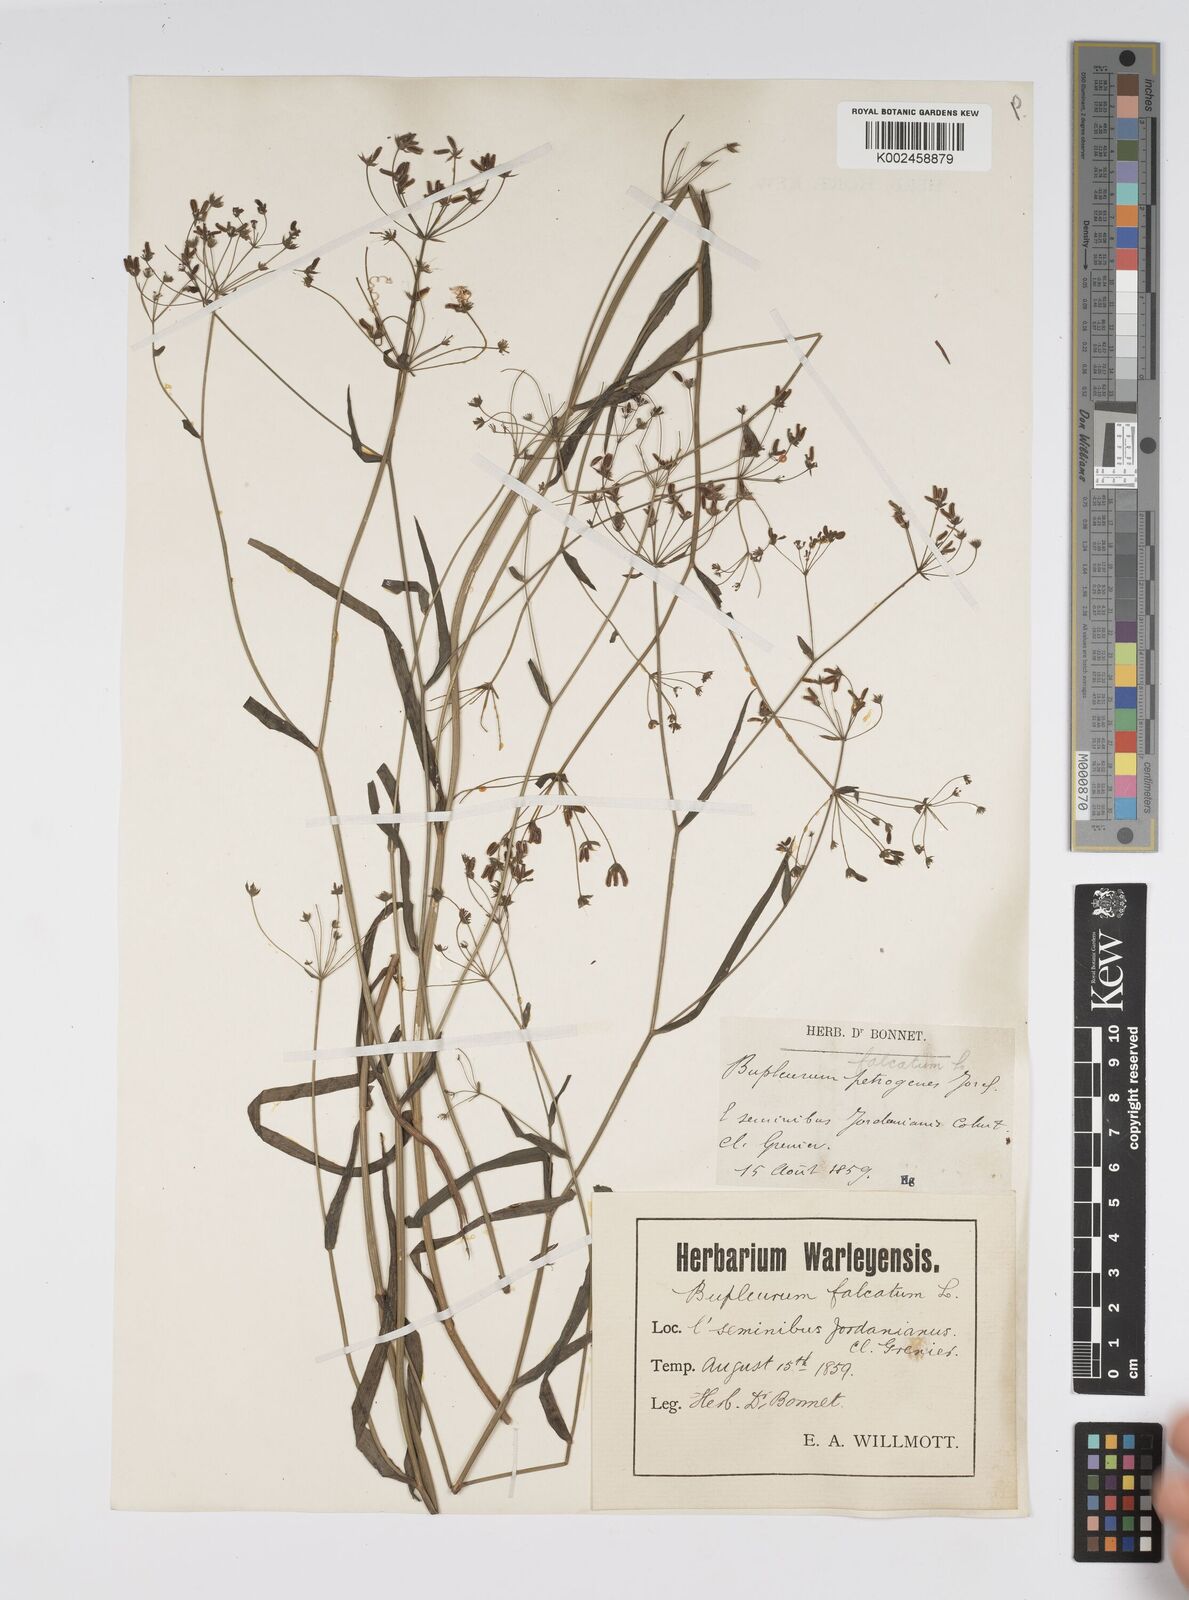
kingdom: Plantae
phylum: Tracheophyta
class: Magnoliopsida
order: Apiales
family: Apiaceae
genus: Bupleurum
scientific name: Bupleurum falcatum
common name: Sickle-leaved hare's-ear
